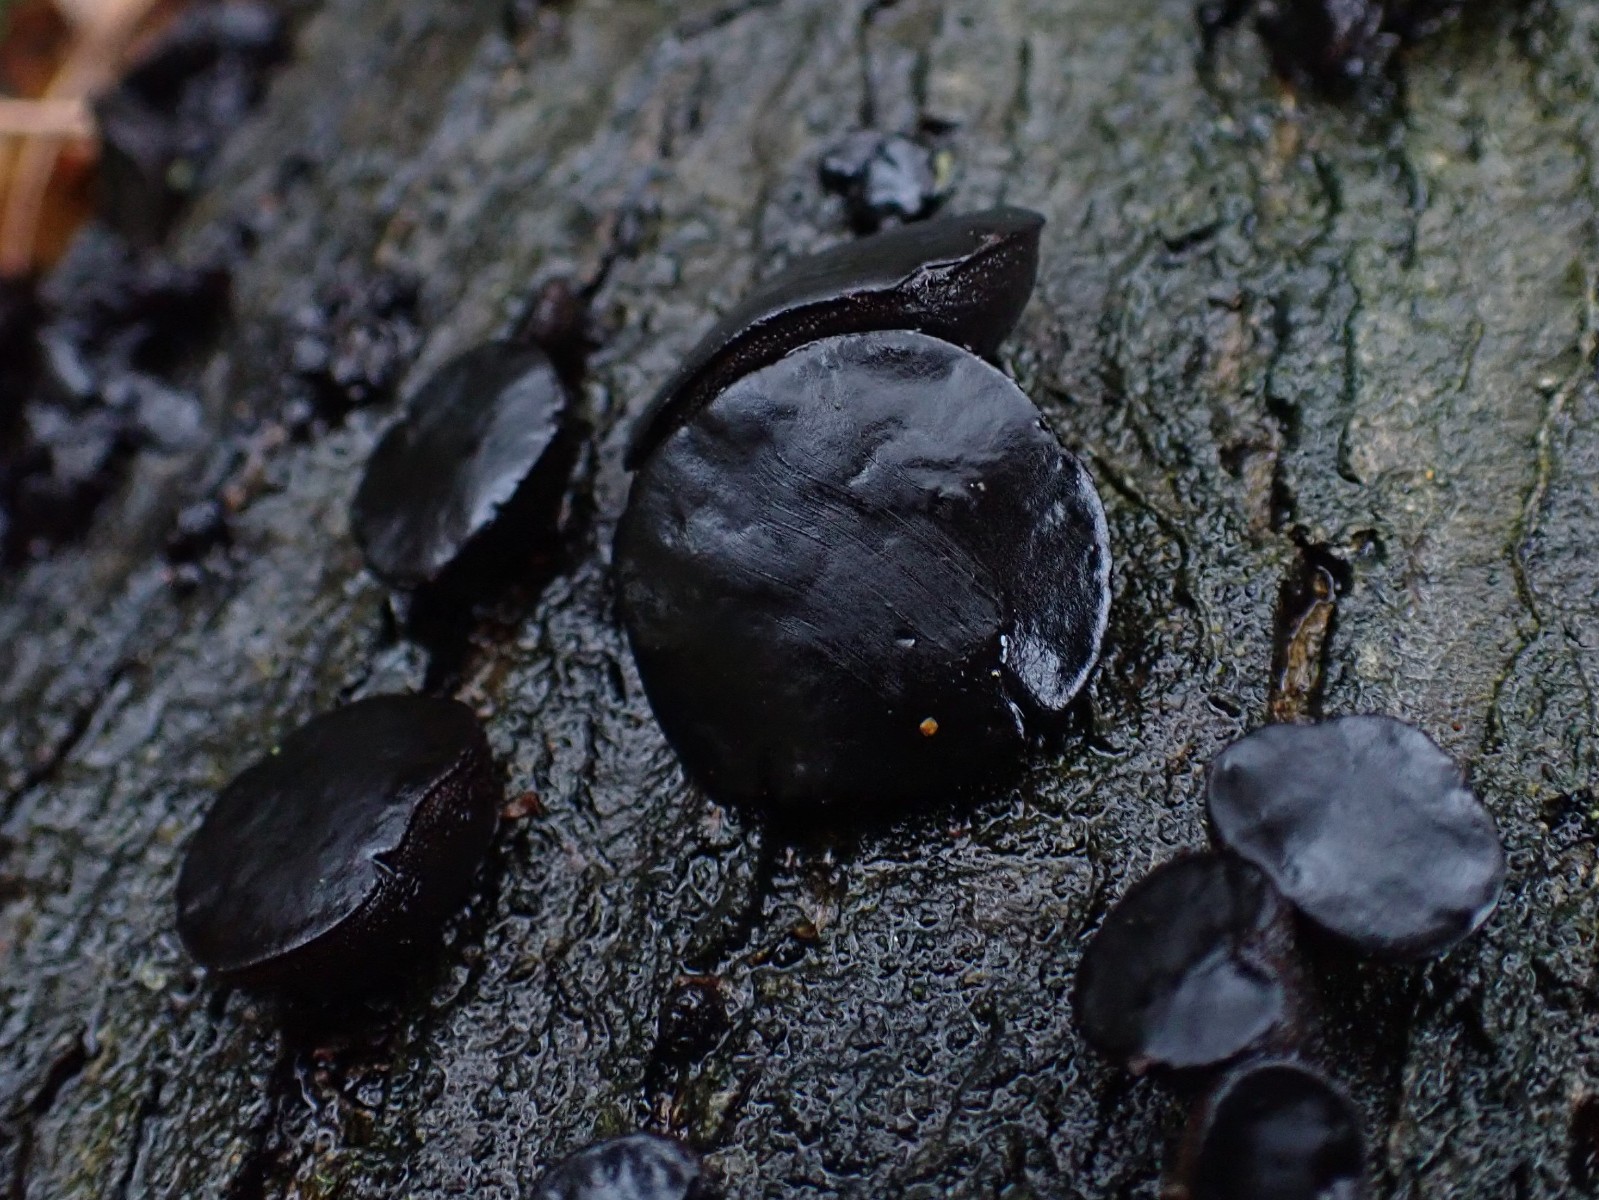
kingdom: Fungi
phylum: Ascomycota
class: Leotiomycetes
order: Phacidiales
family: Phacidiaceae
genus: Bulgaria
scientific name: Bulgaria inquinans
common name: afsmittende topsvamp
